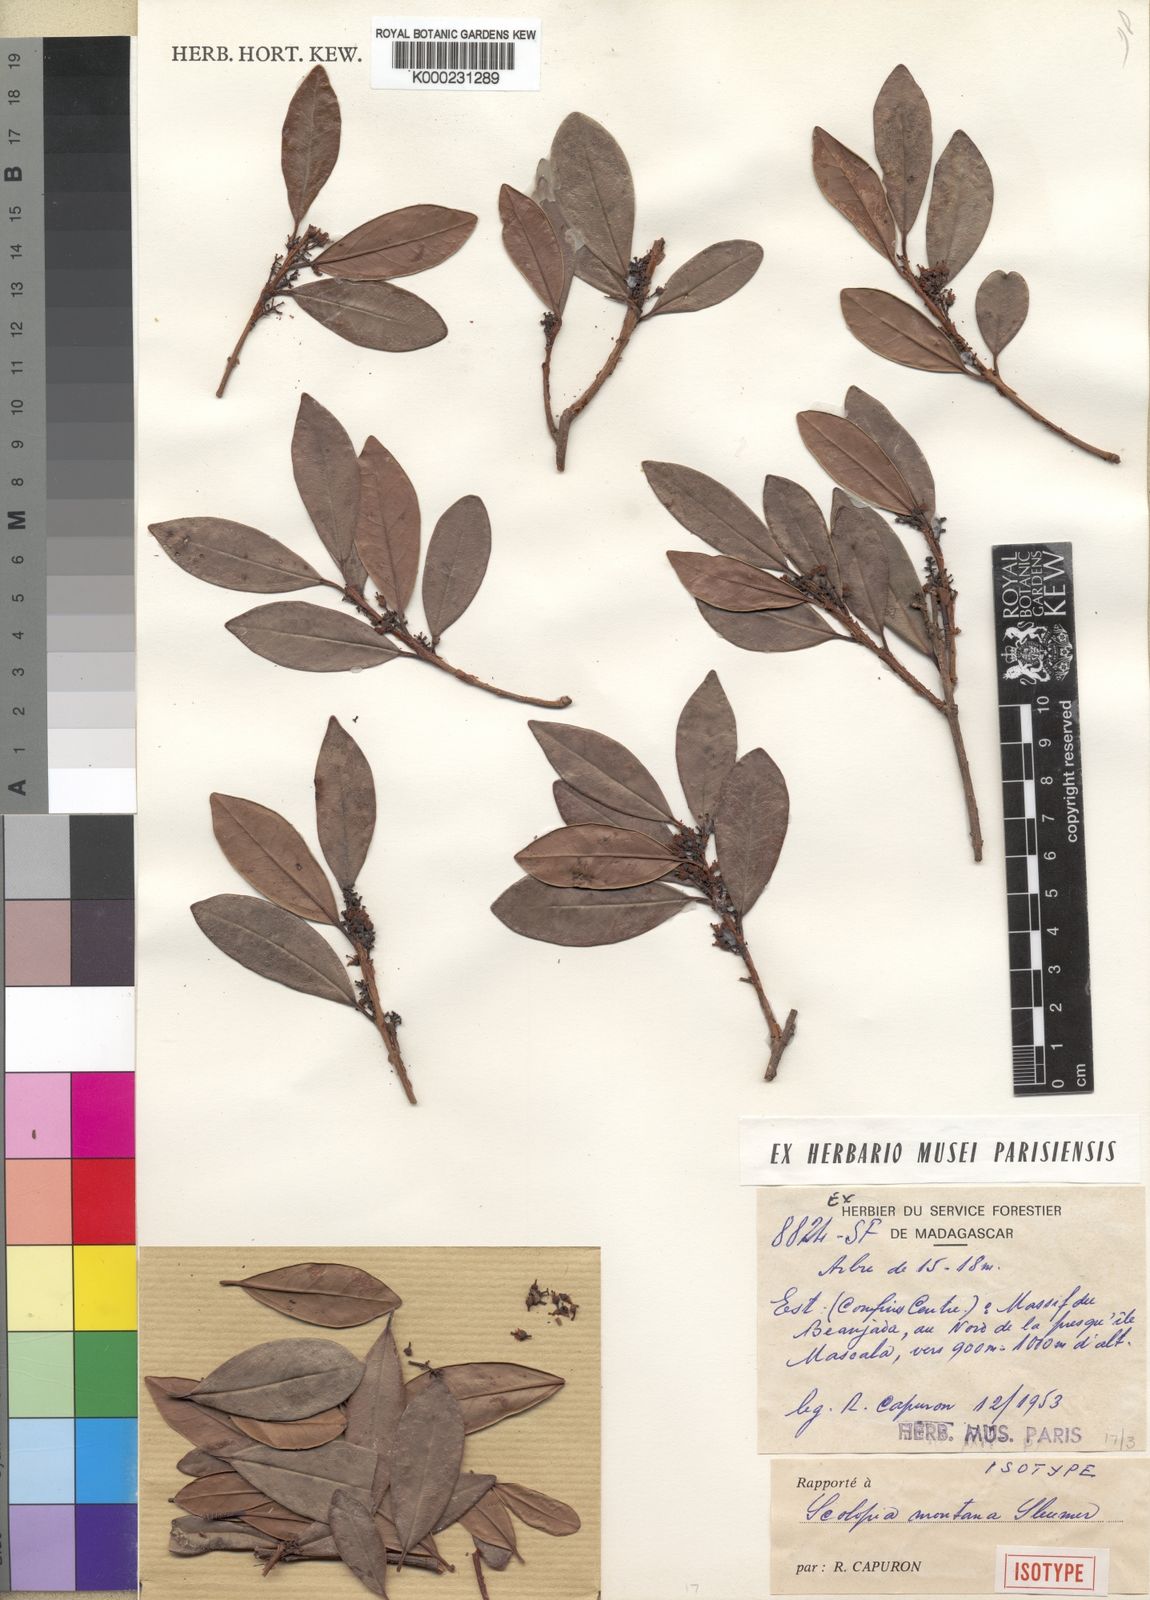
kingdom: Plantae
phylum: Tracheophyta
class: Magnoliopsida
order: Malpighiales
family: Salicaceae
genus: Scolopia
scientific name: Scolopia montana
